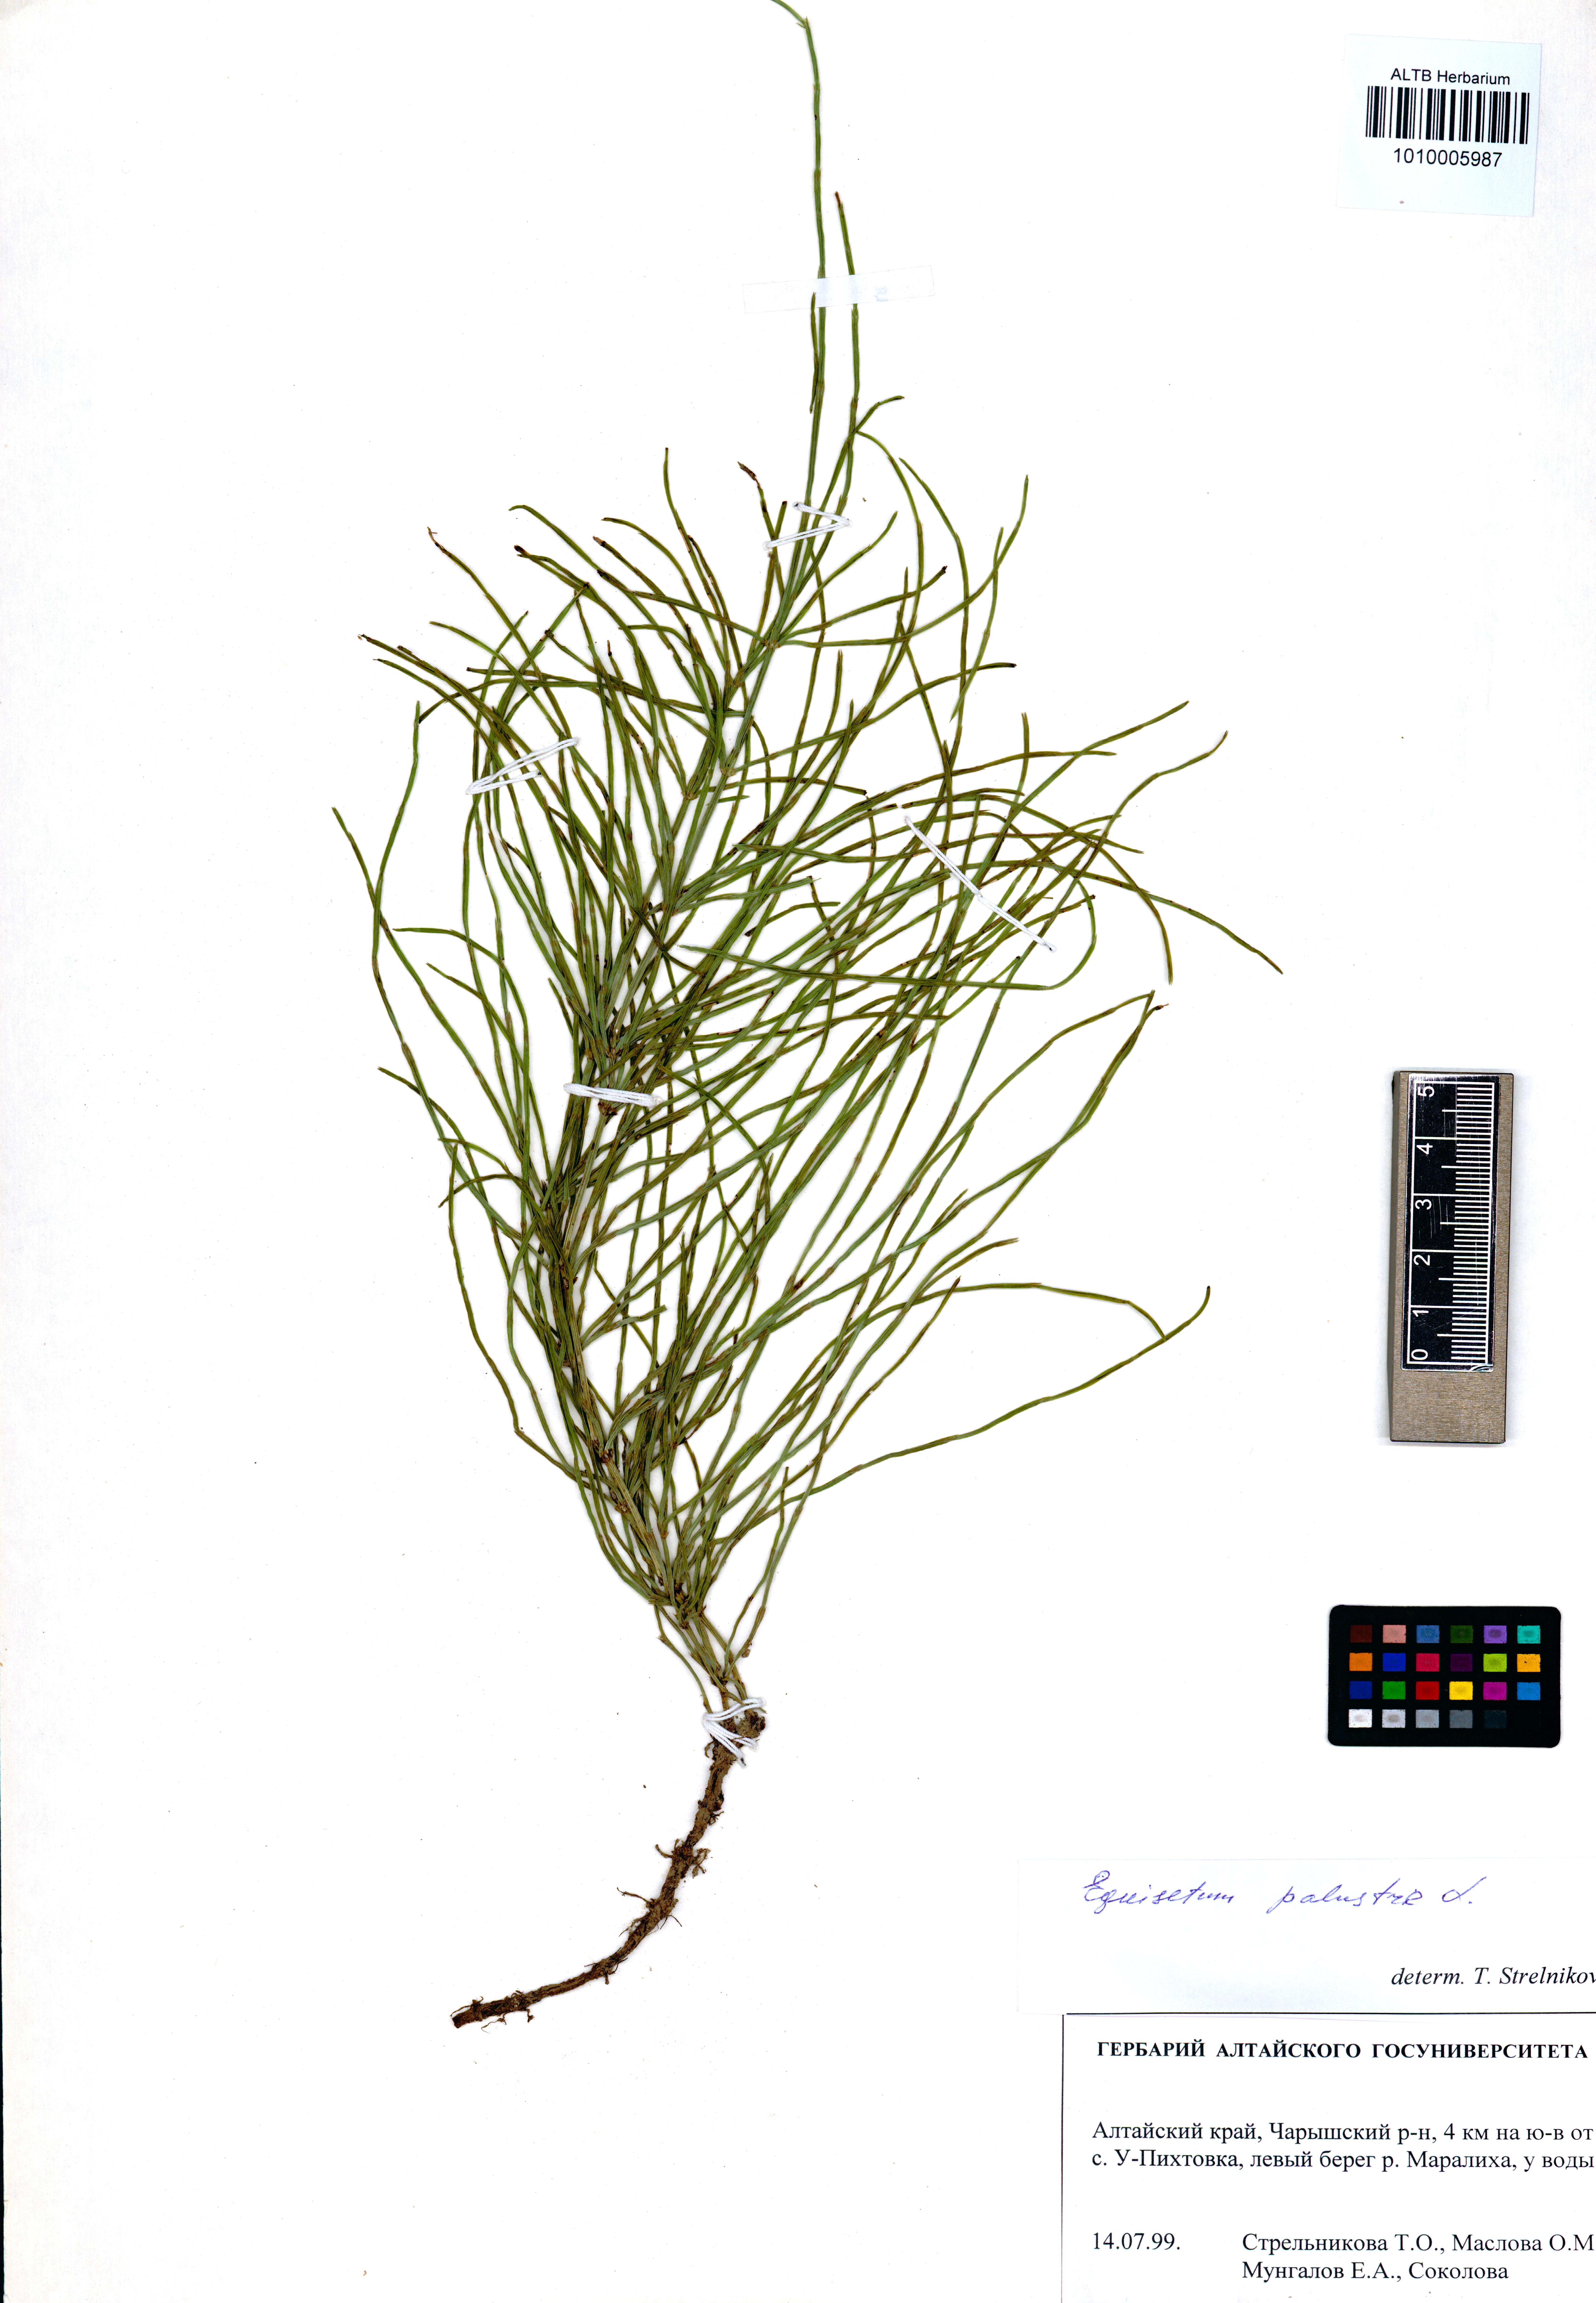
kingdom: Plantae
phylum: Tracheophyta
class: Polypodiopsida
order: Equisetales
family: Equisetaceae
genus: Equisetum
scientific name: Equisetum palustre
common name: Marsh horsetail
